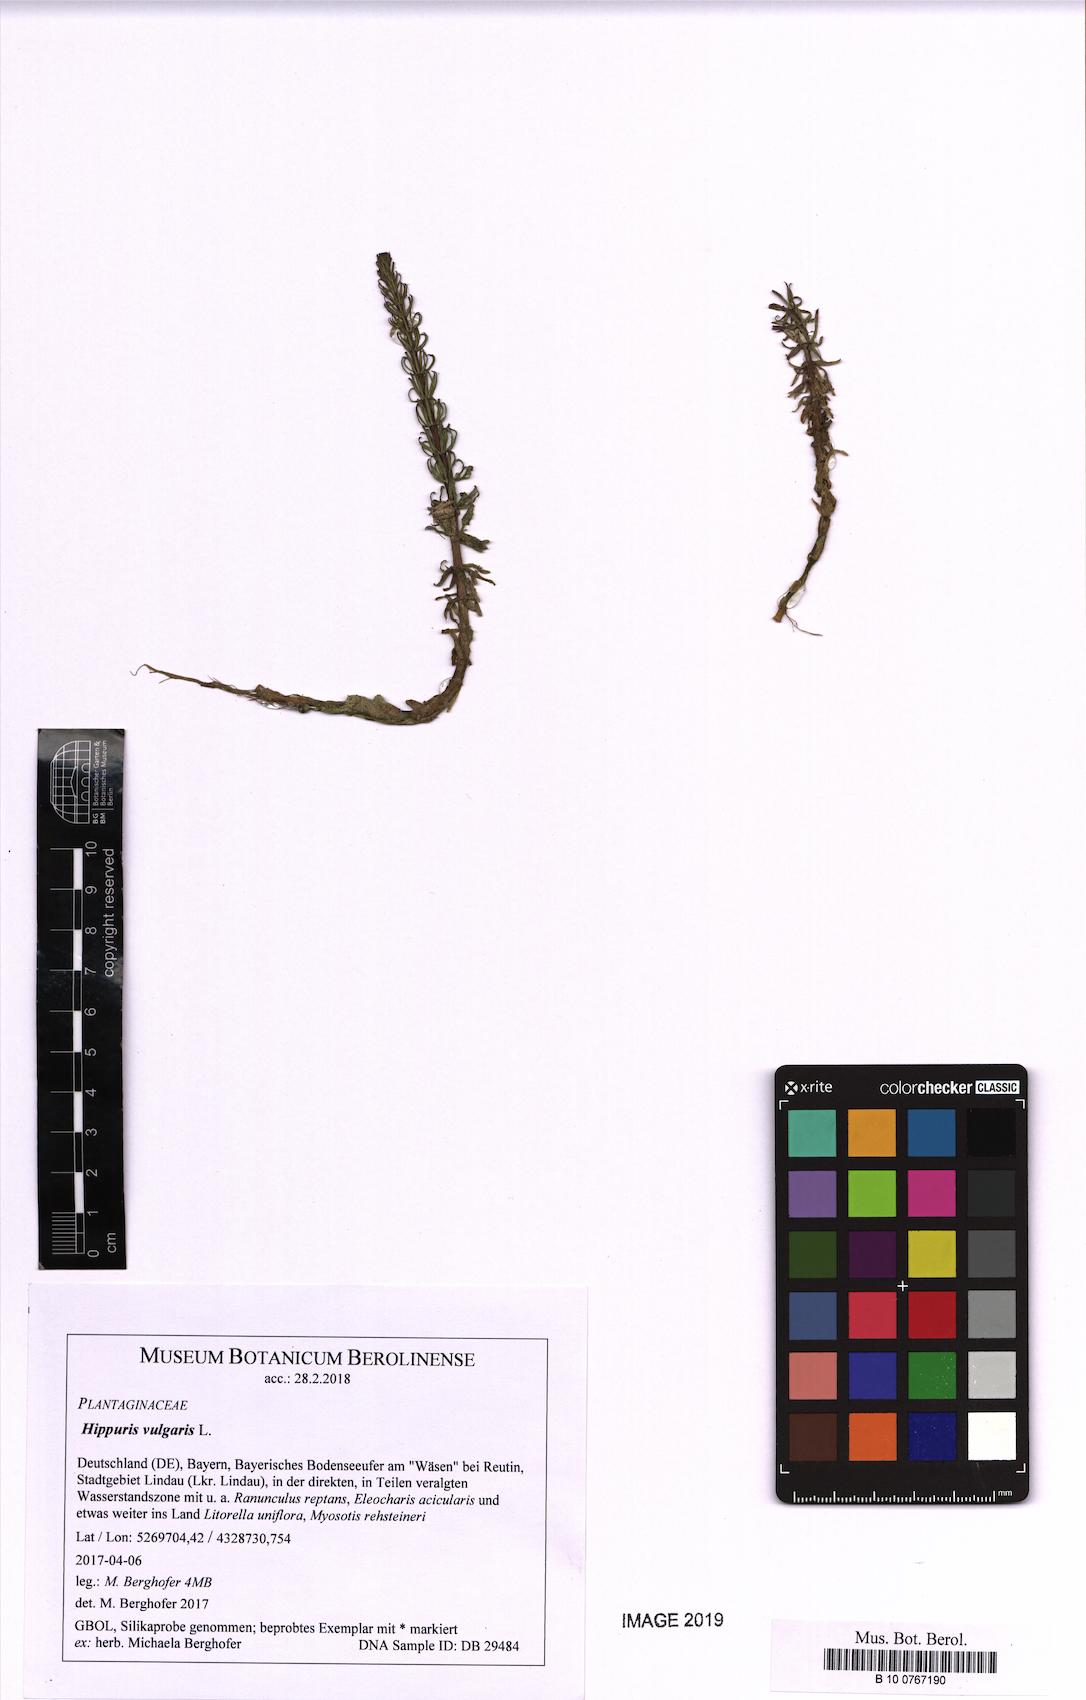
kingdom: Plantae
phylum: Tracheophyta
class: Magnoliopsida
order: Lamiales
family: Plantaginaceae
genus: Hippuris
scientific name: Hippuris vulgaris
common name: Mare's-tail
